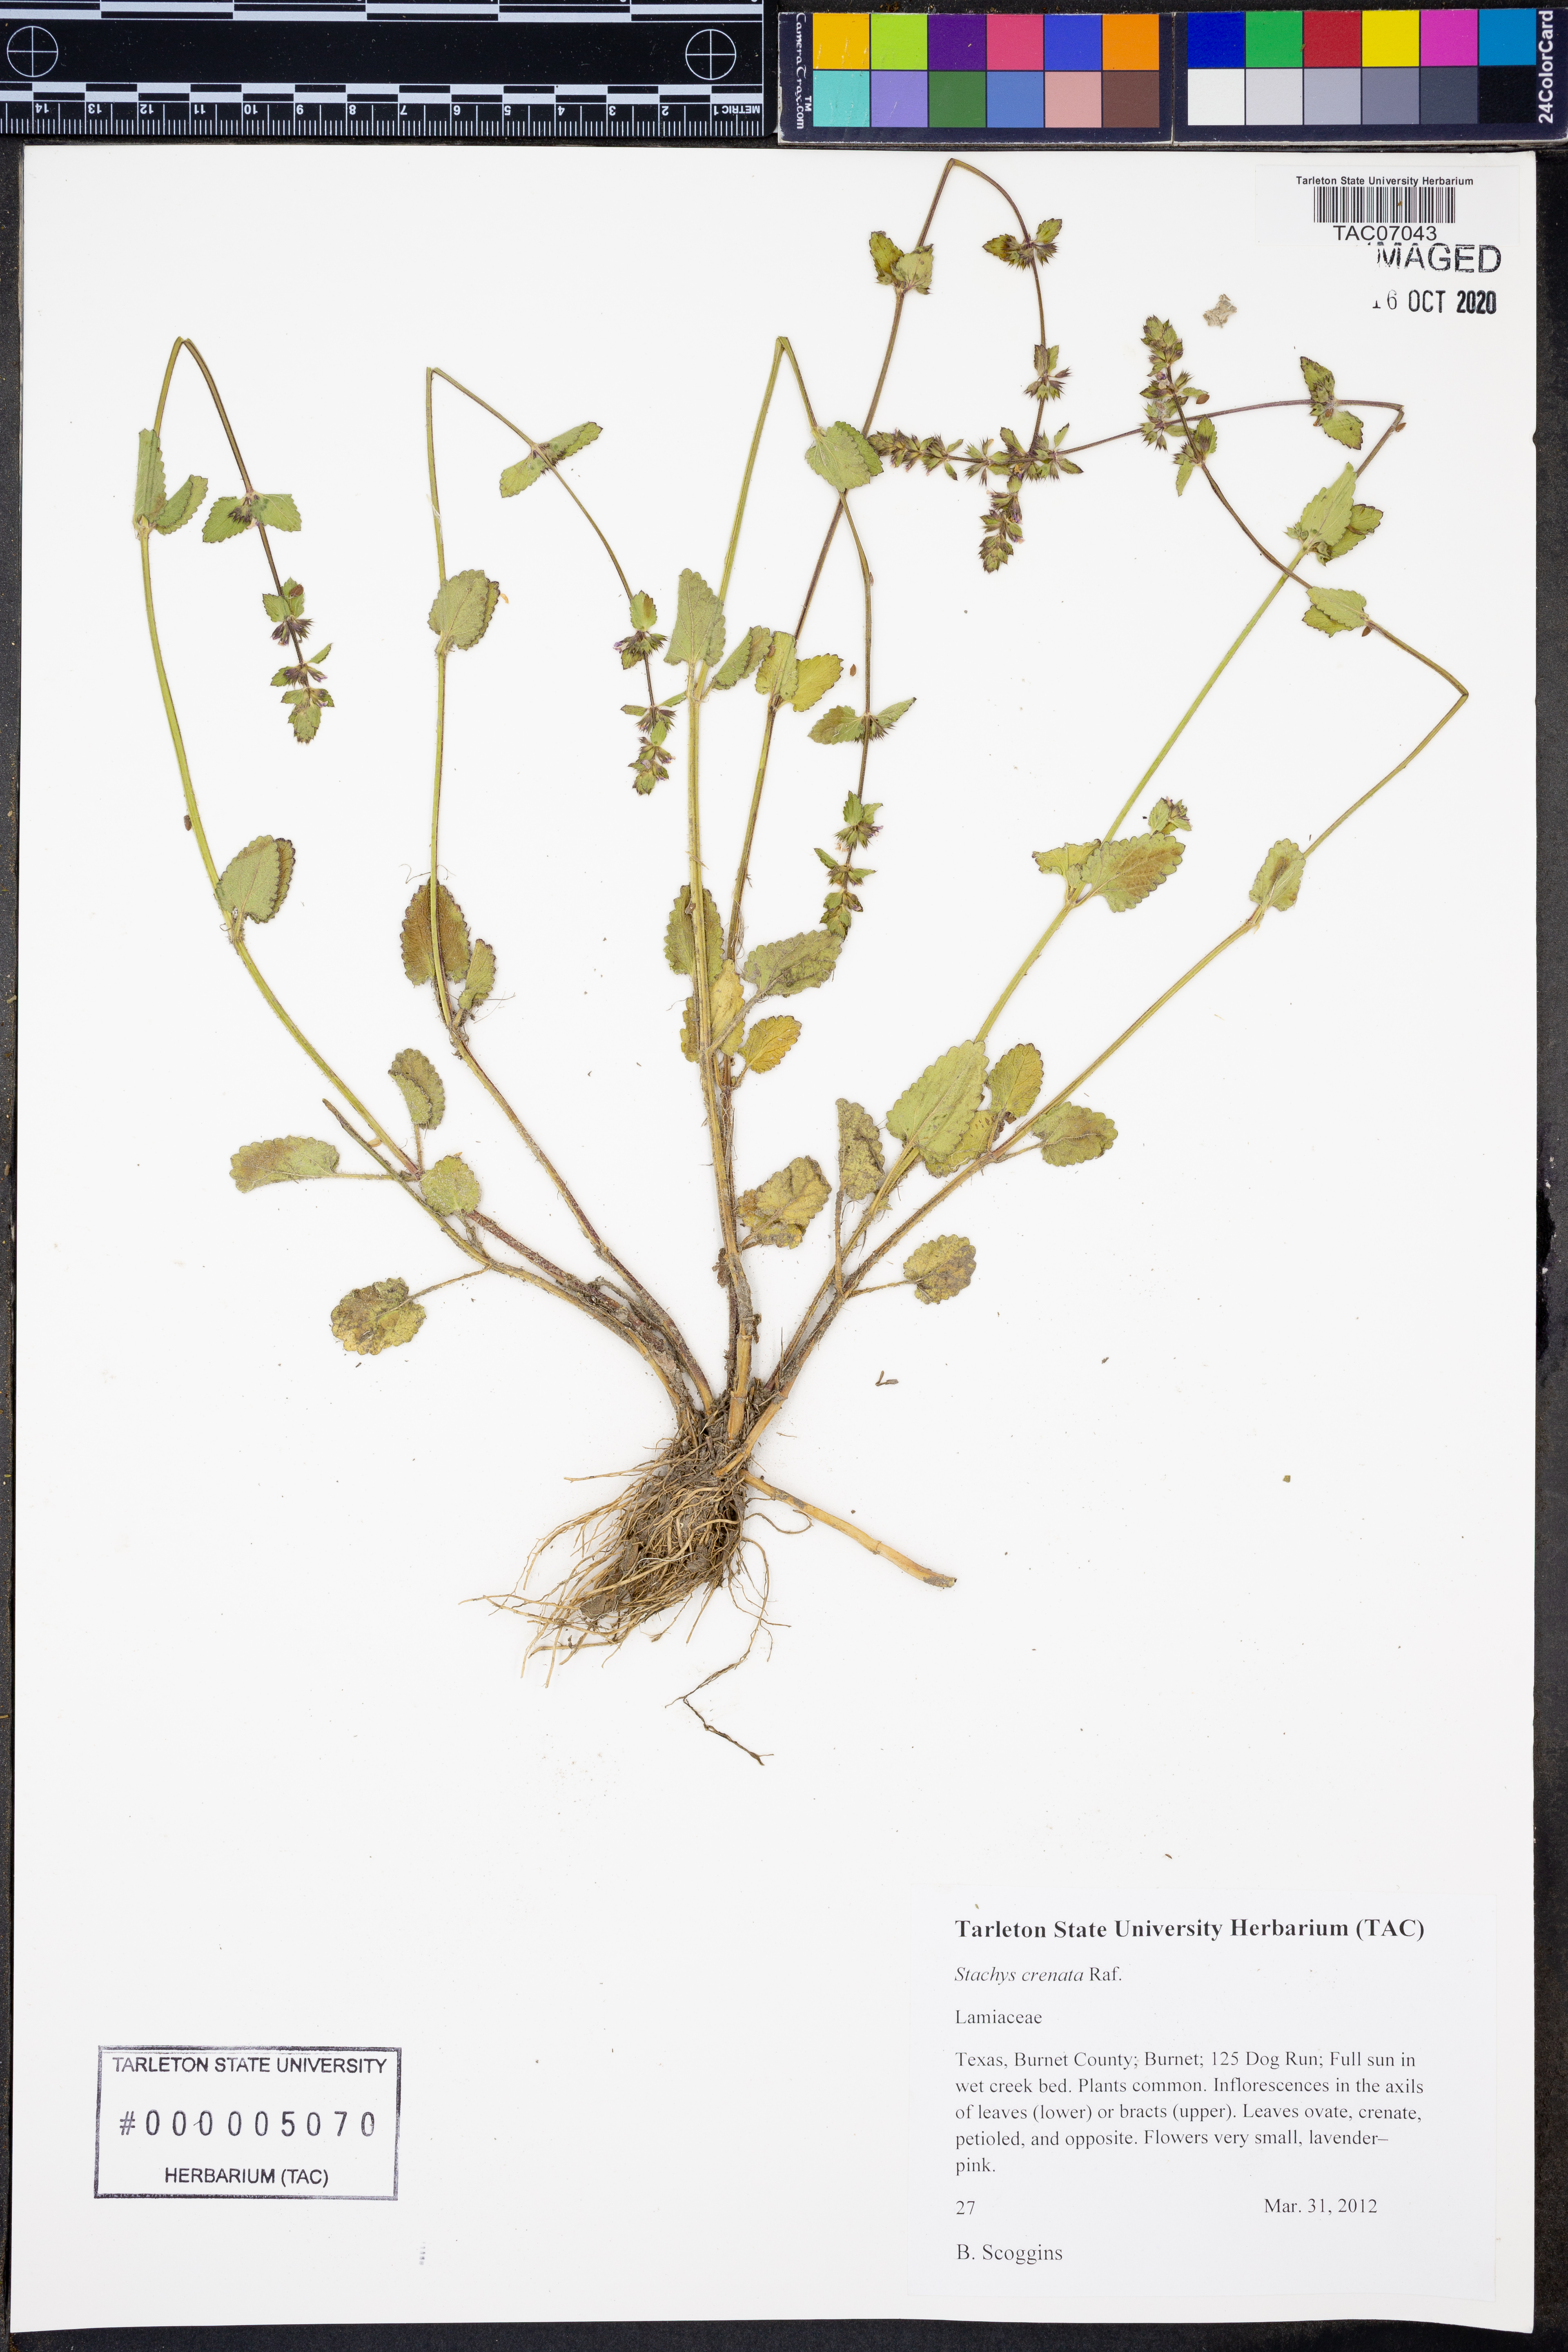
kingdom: Plantae
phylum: Tracheophyta
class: Magnoliopsida
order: Lamiales
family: Lamiaceae
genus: Stachys
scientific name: Stachys agraria
